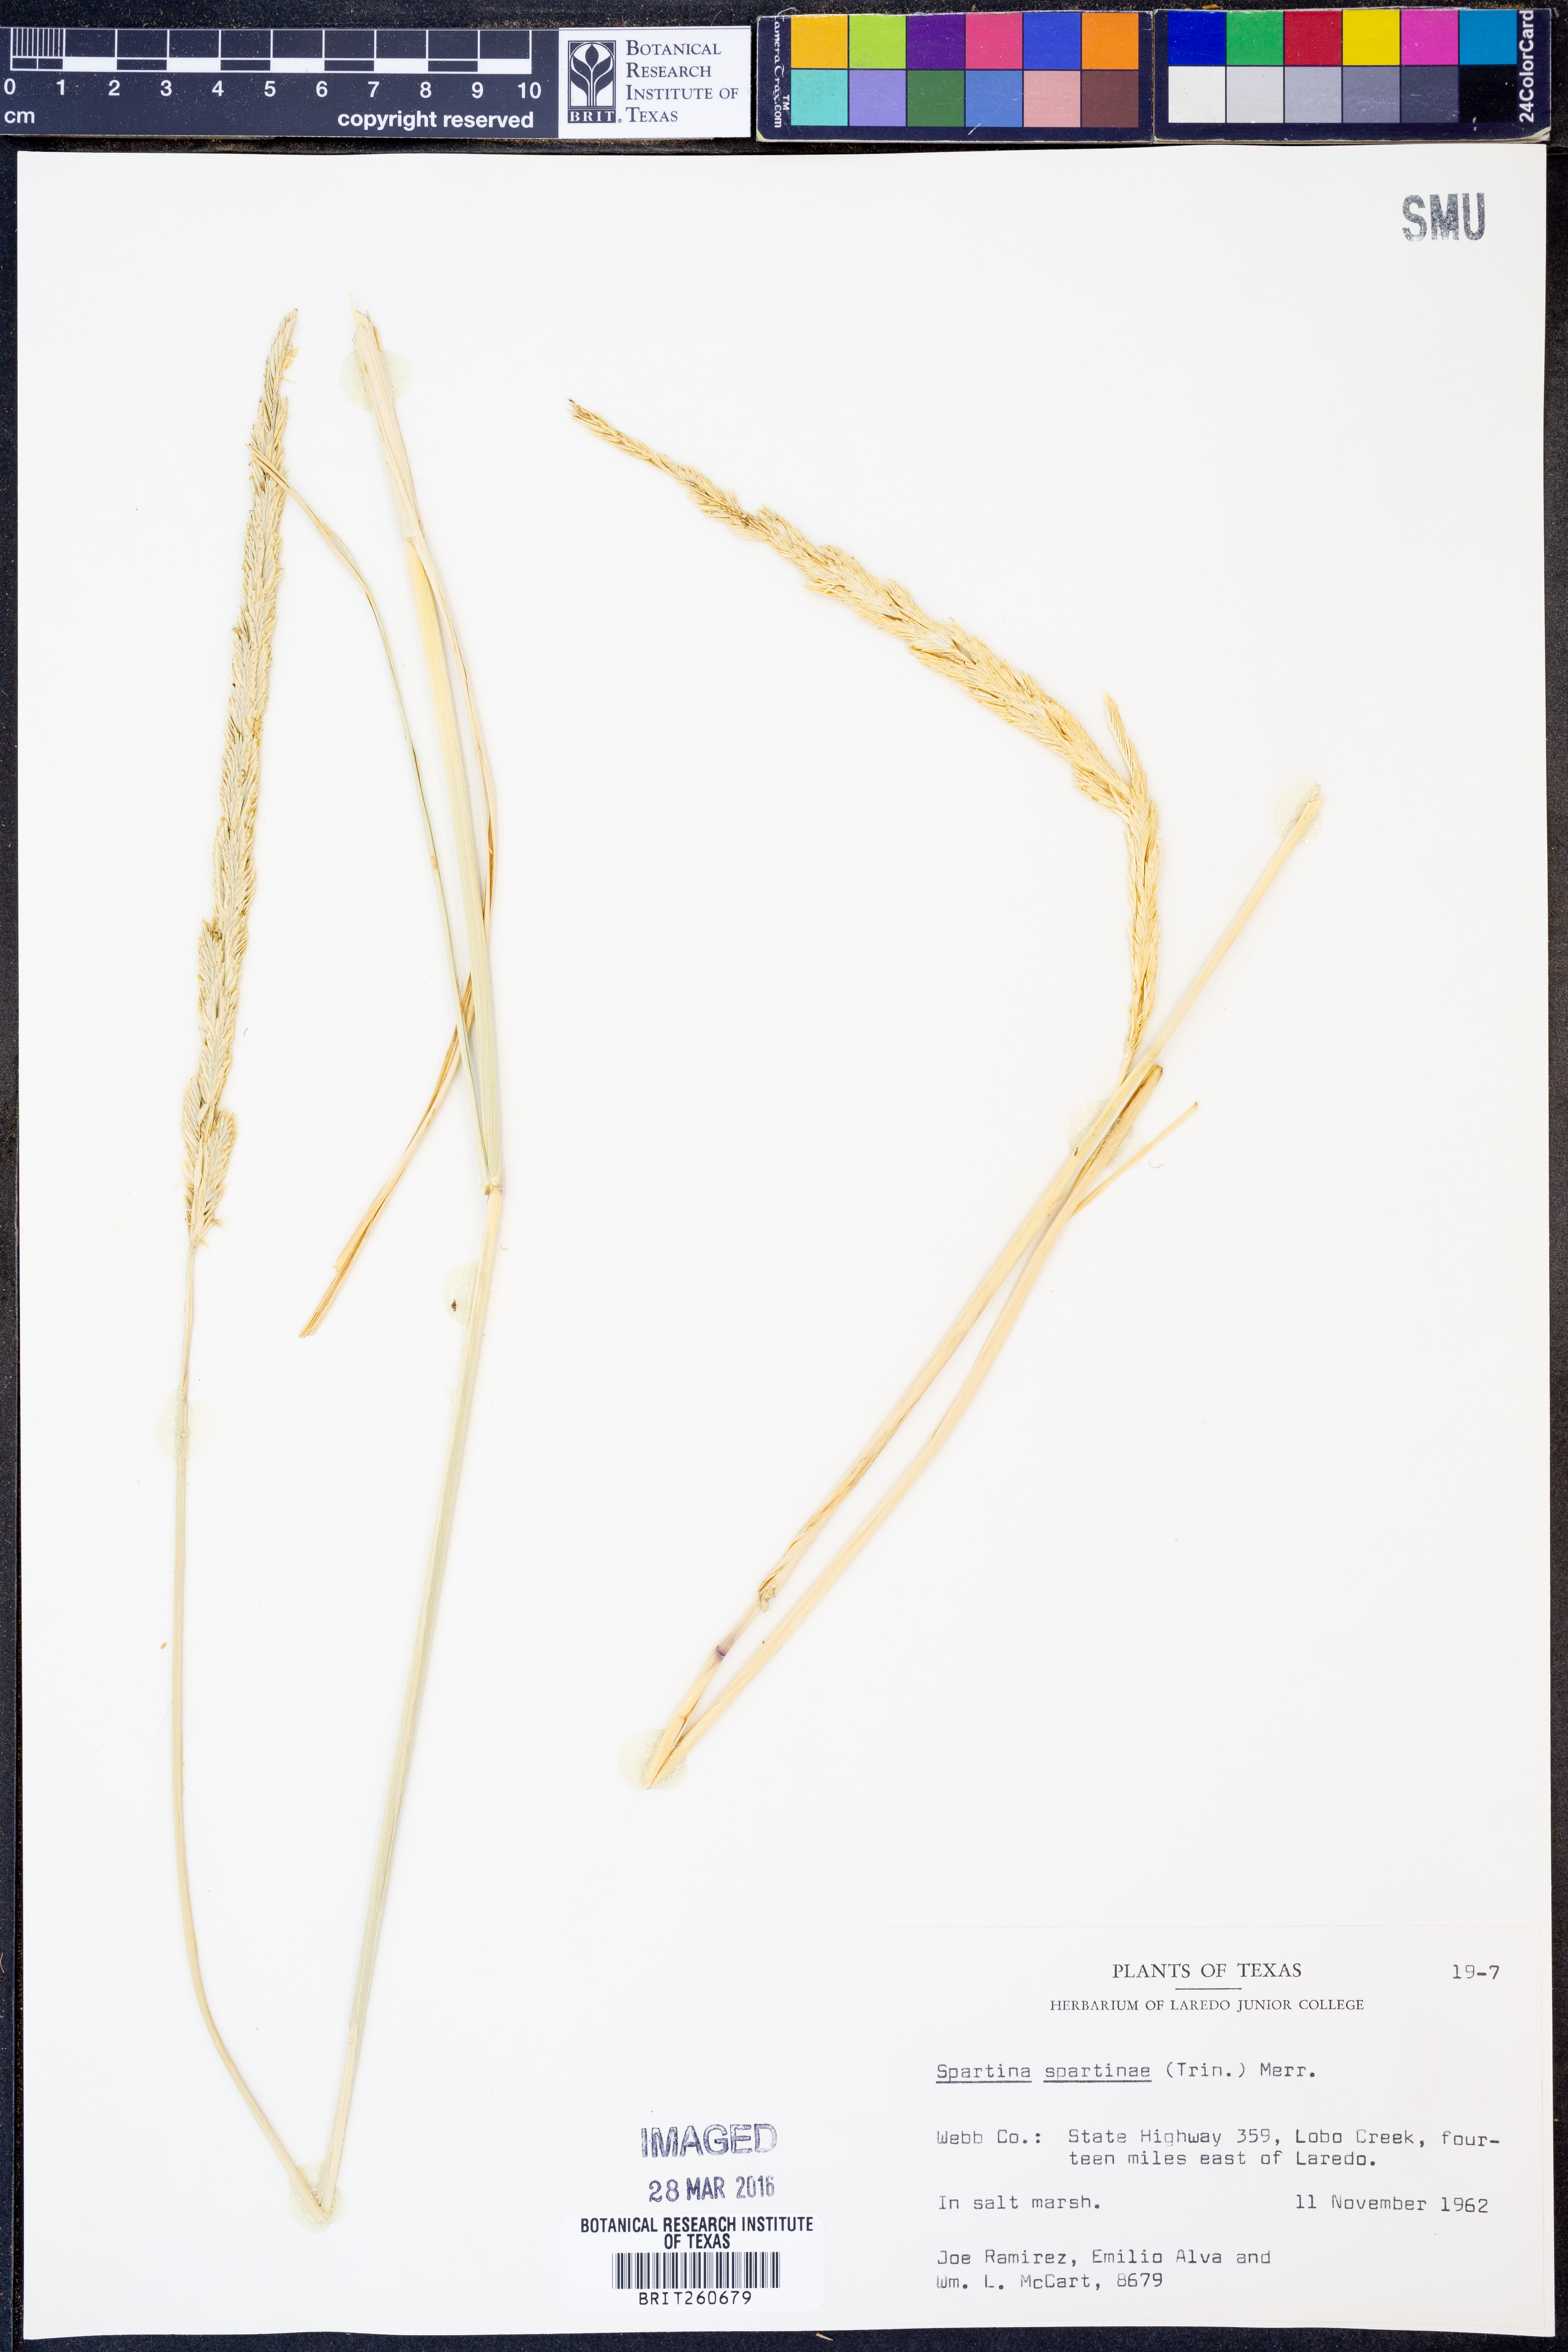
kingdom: Plantae
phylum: Tracheophyta
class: Liliopsida
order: Poales
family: Poaceae
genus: Sporobolus
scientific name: Sporobolus spartinae
